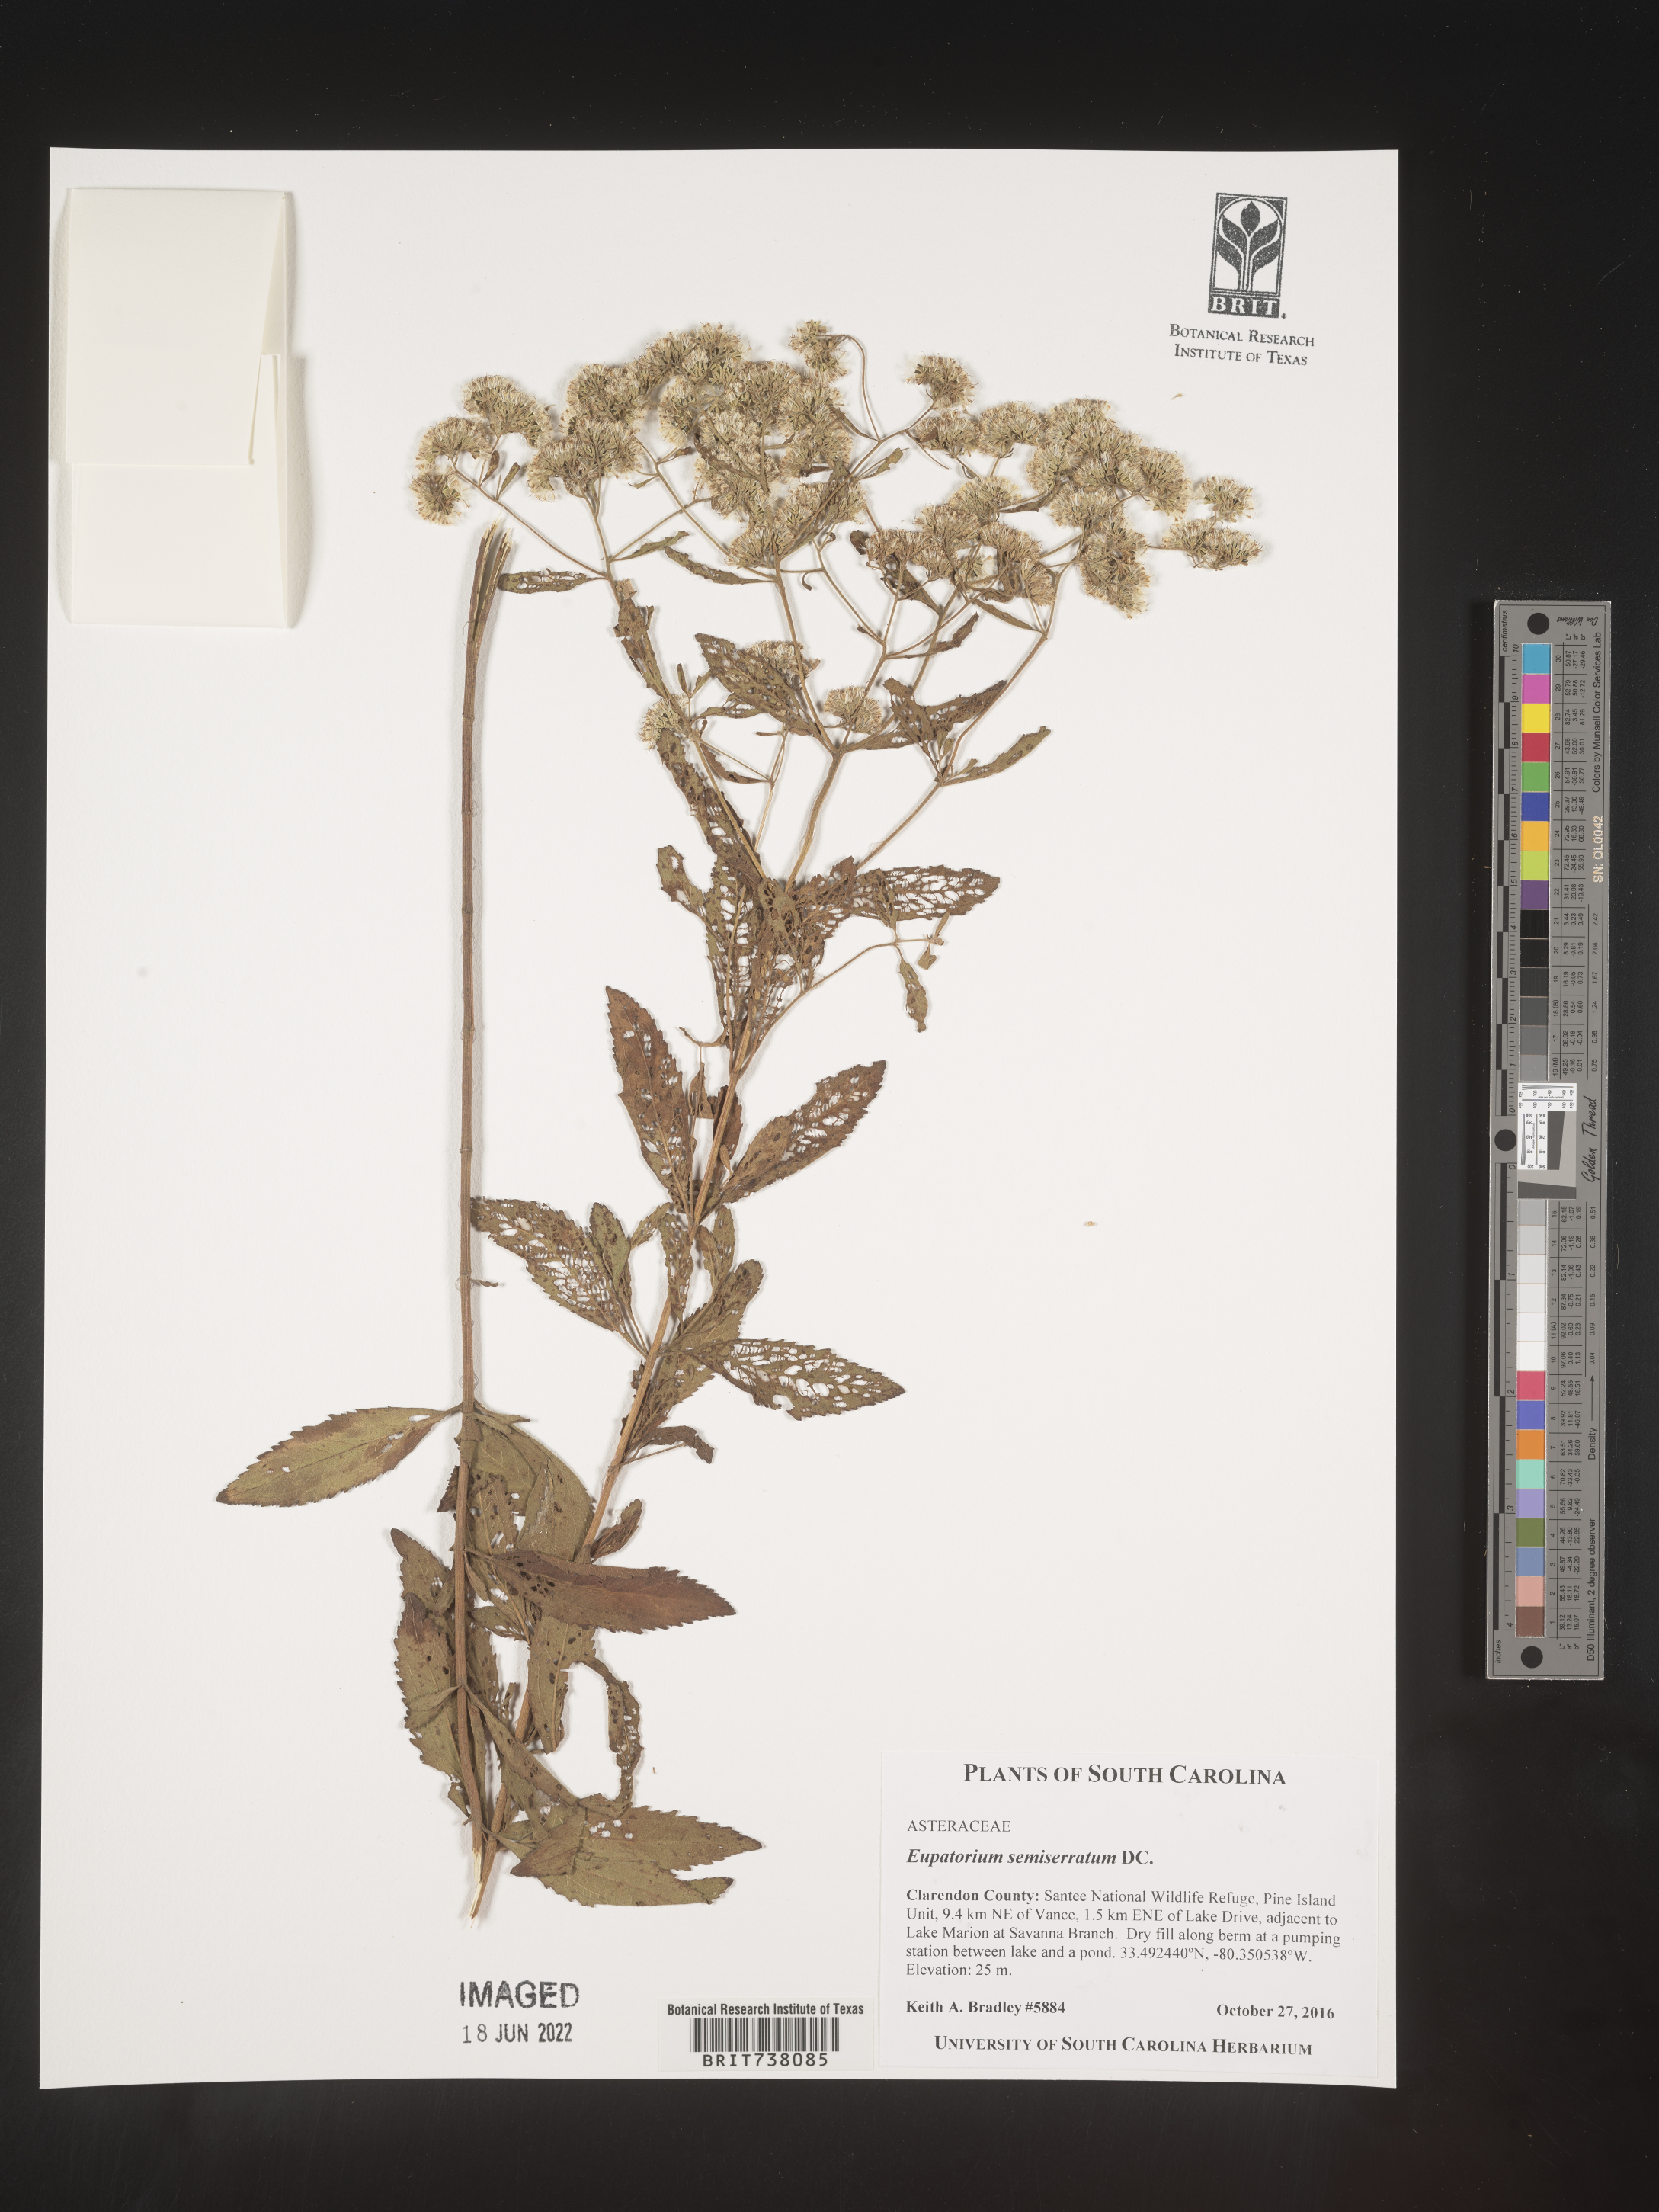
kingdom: Plantae
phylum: Tracheophyta
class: Magnoliopsida
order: Asterales
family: Asteraceae
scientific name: Asteraceae
